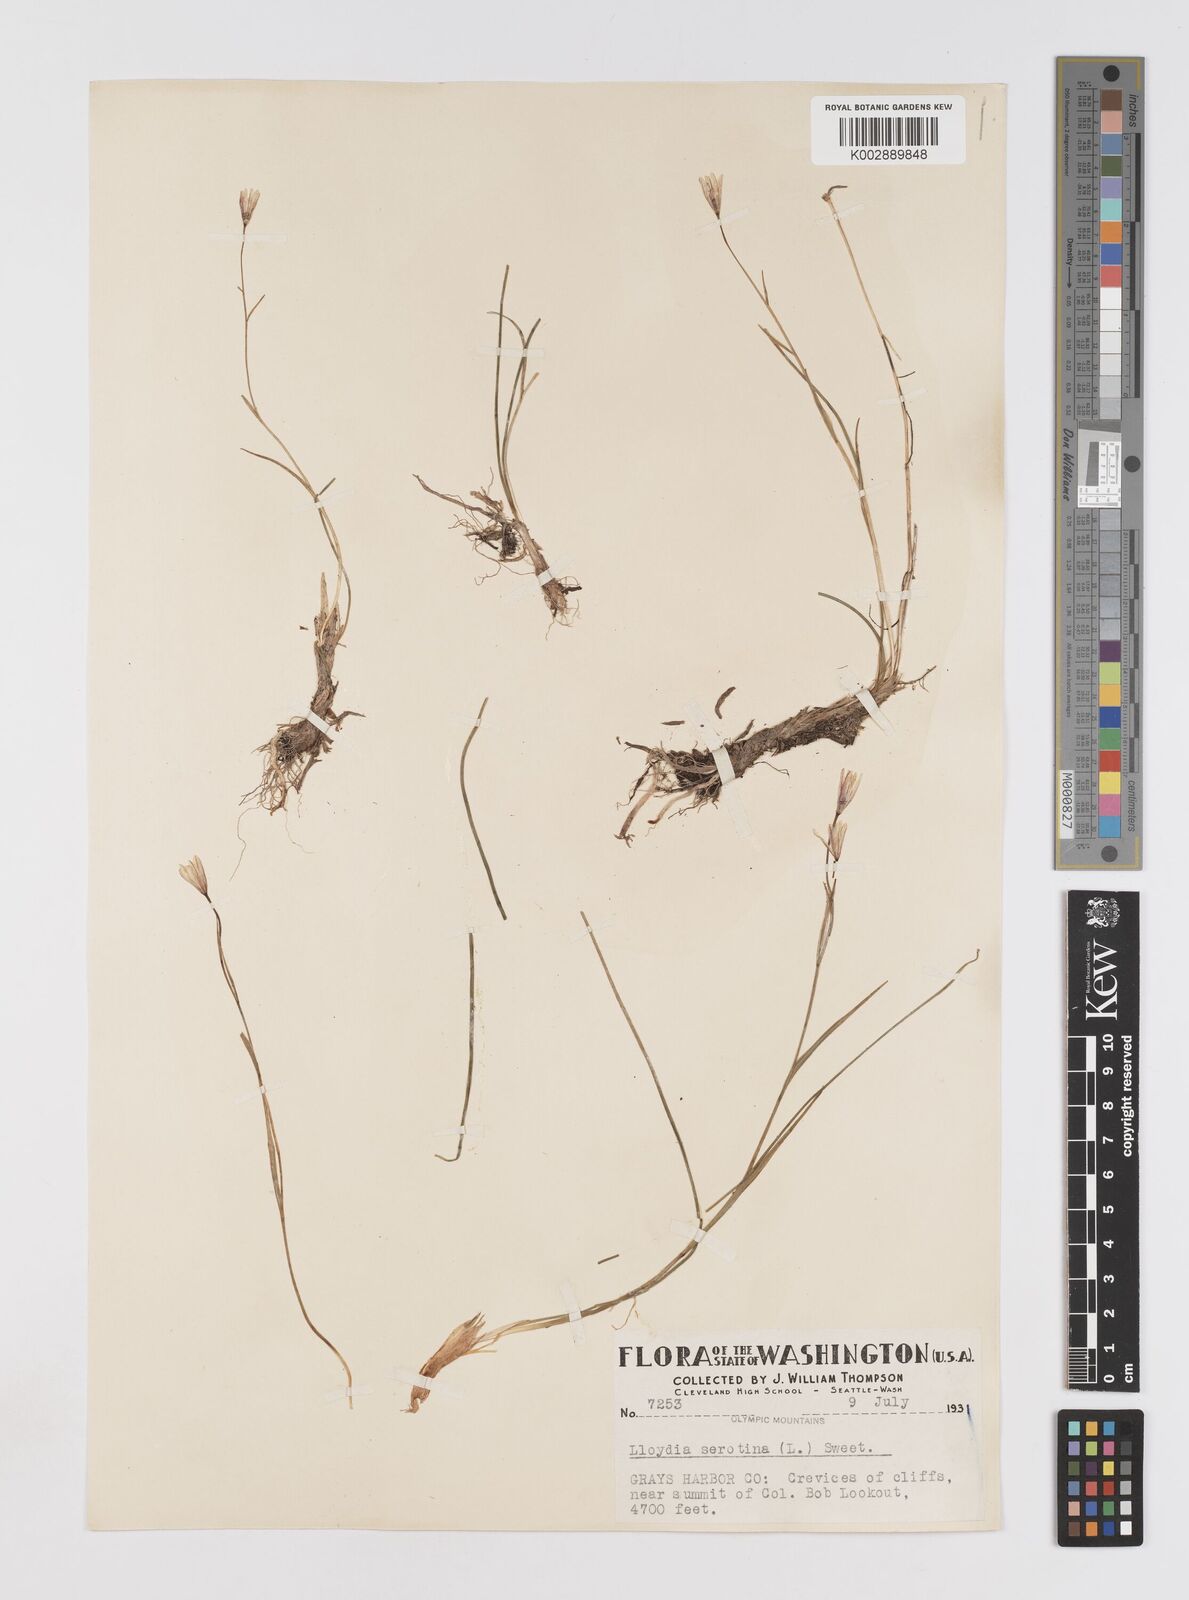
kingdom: Plantae
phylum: Tracheophyta
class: Liliopsida
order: Liliales
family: Liliaceae
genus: Gagea
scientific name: Gagea serotina
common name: Snowdon lily
